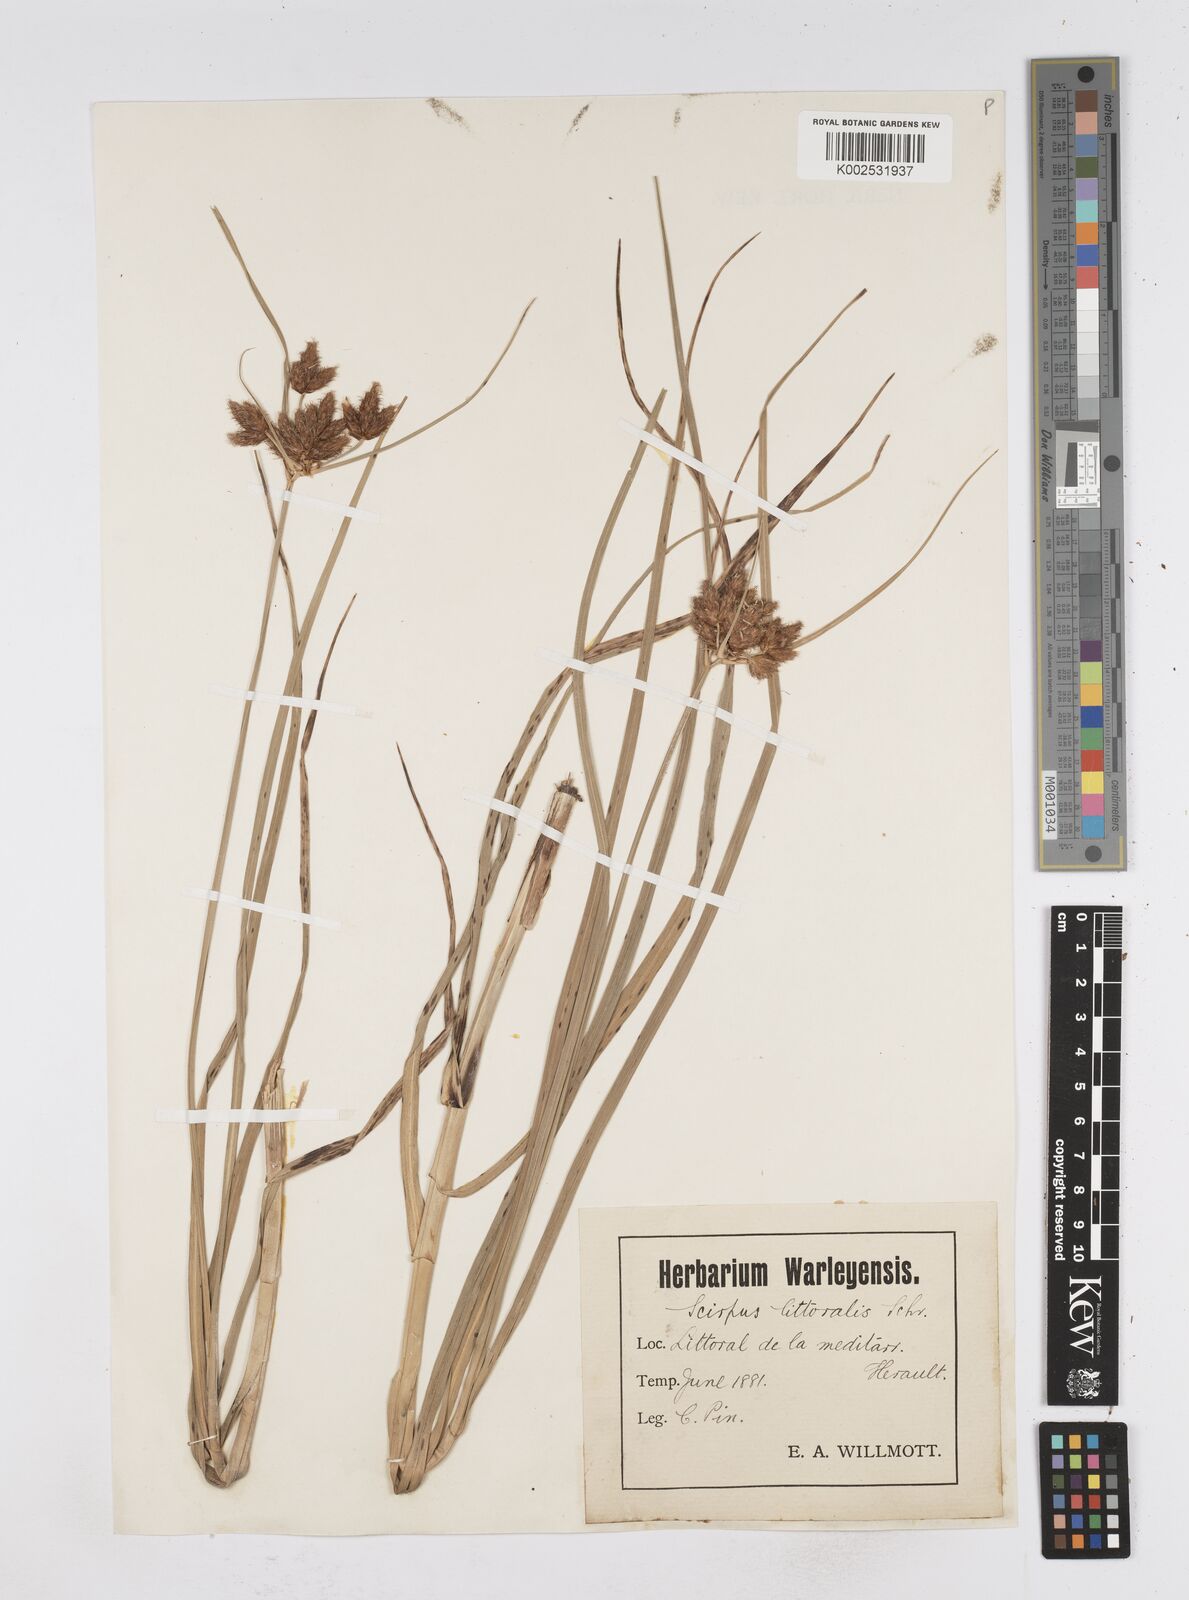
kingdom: Plantae
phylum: Tracheophyta
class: Liliopsida
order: Poales
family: Cyperaceae
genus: Bolboschoenus
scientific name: Bolboschoenus maritimus
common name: Sea club-rush
